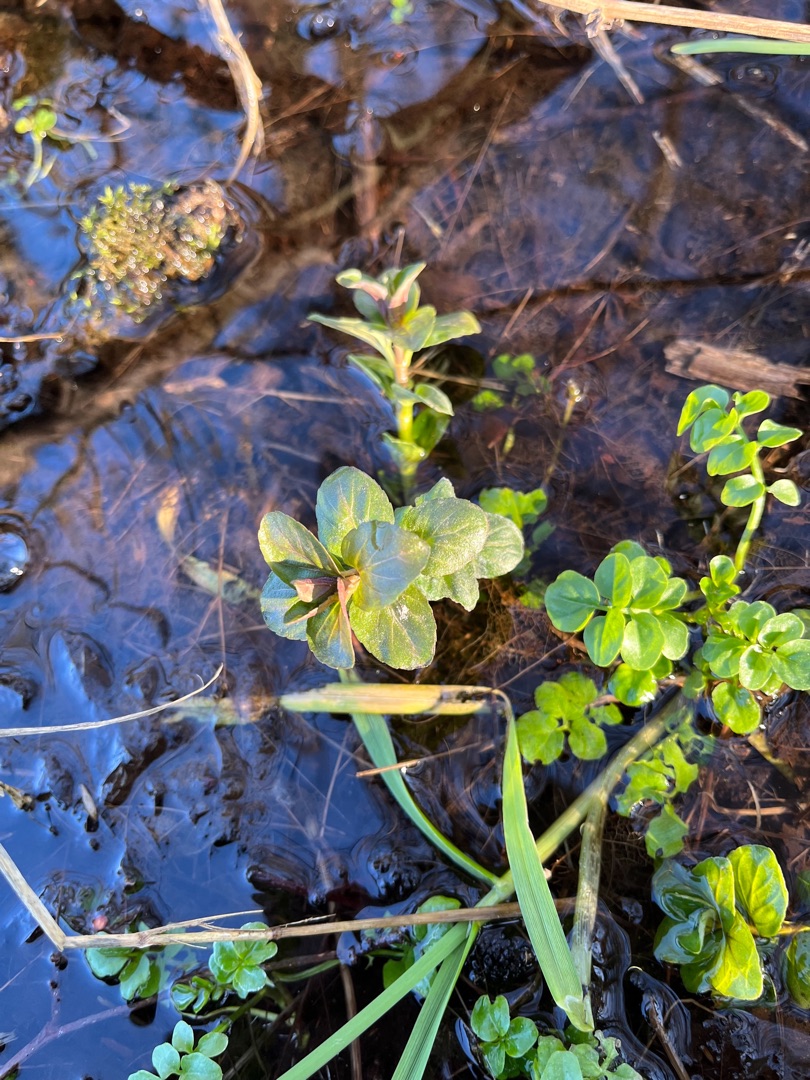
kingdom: Plantae
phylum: Tracheophyta
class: Magnoliopsida
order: Lamiales
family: Plantaginaceae
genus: Veronica
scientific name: Veronica beccabunga
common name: Tykbladet ærenpris
